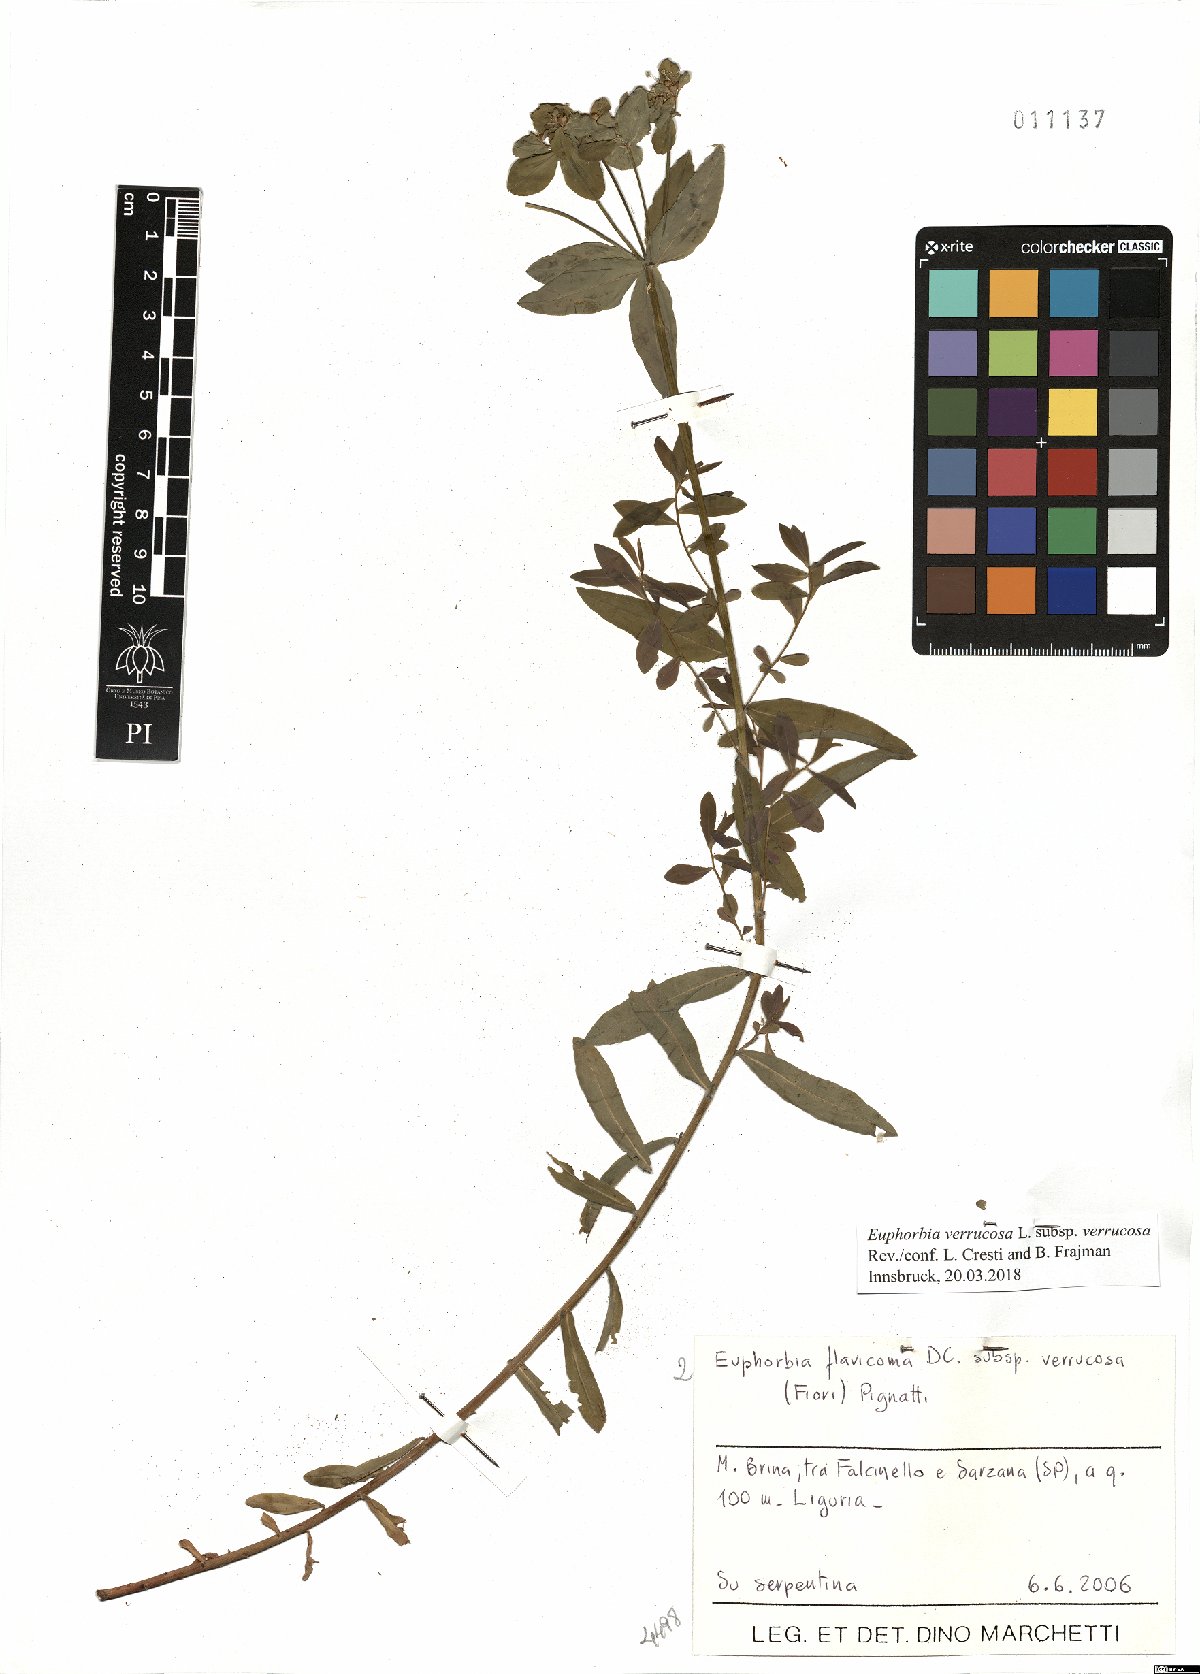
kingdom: Plantae
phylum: Tracheophyta
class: Magnoliopsida
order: Malpighiales
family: Euphorbiaceae
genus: Euphorbia
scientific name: Euphorbia verrucosa
